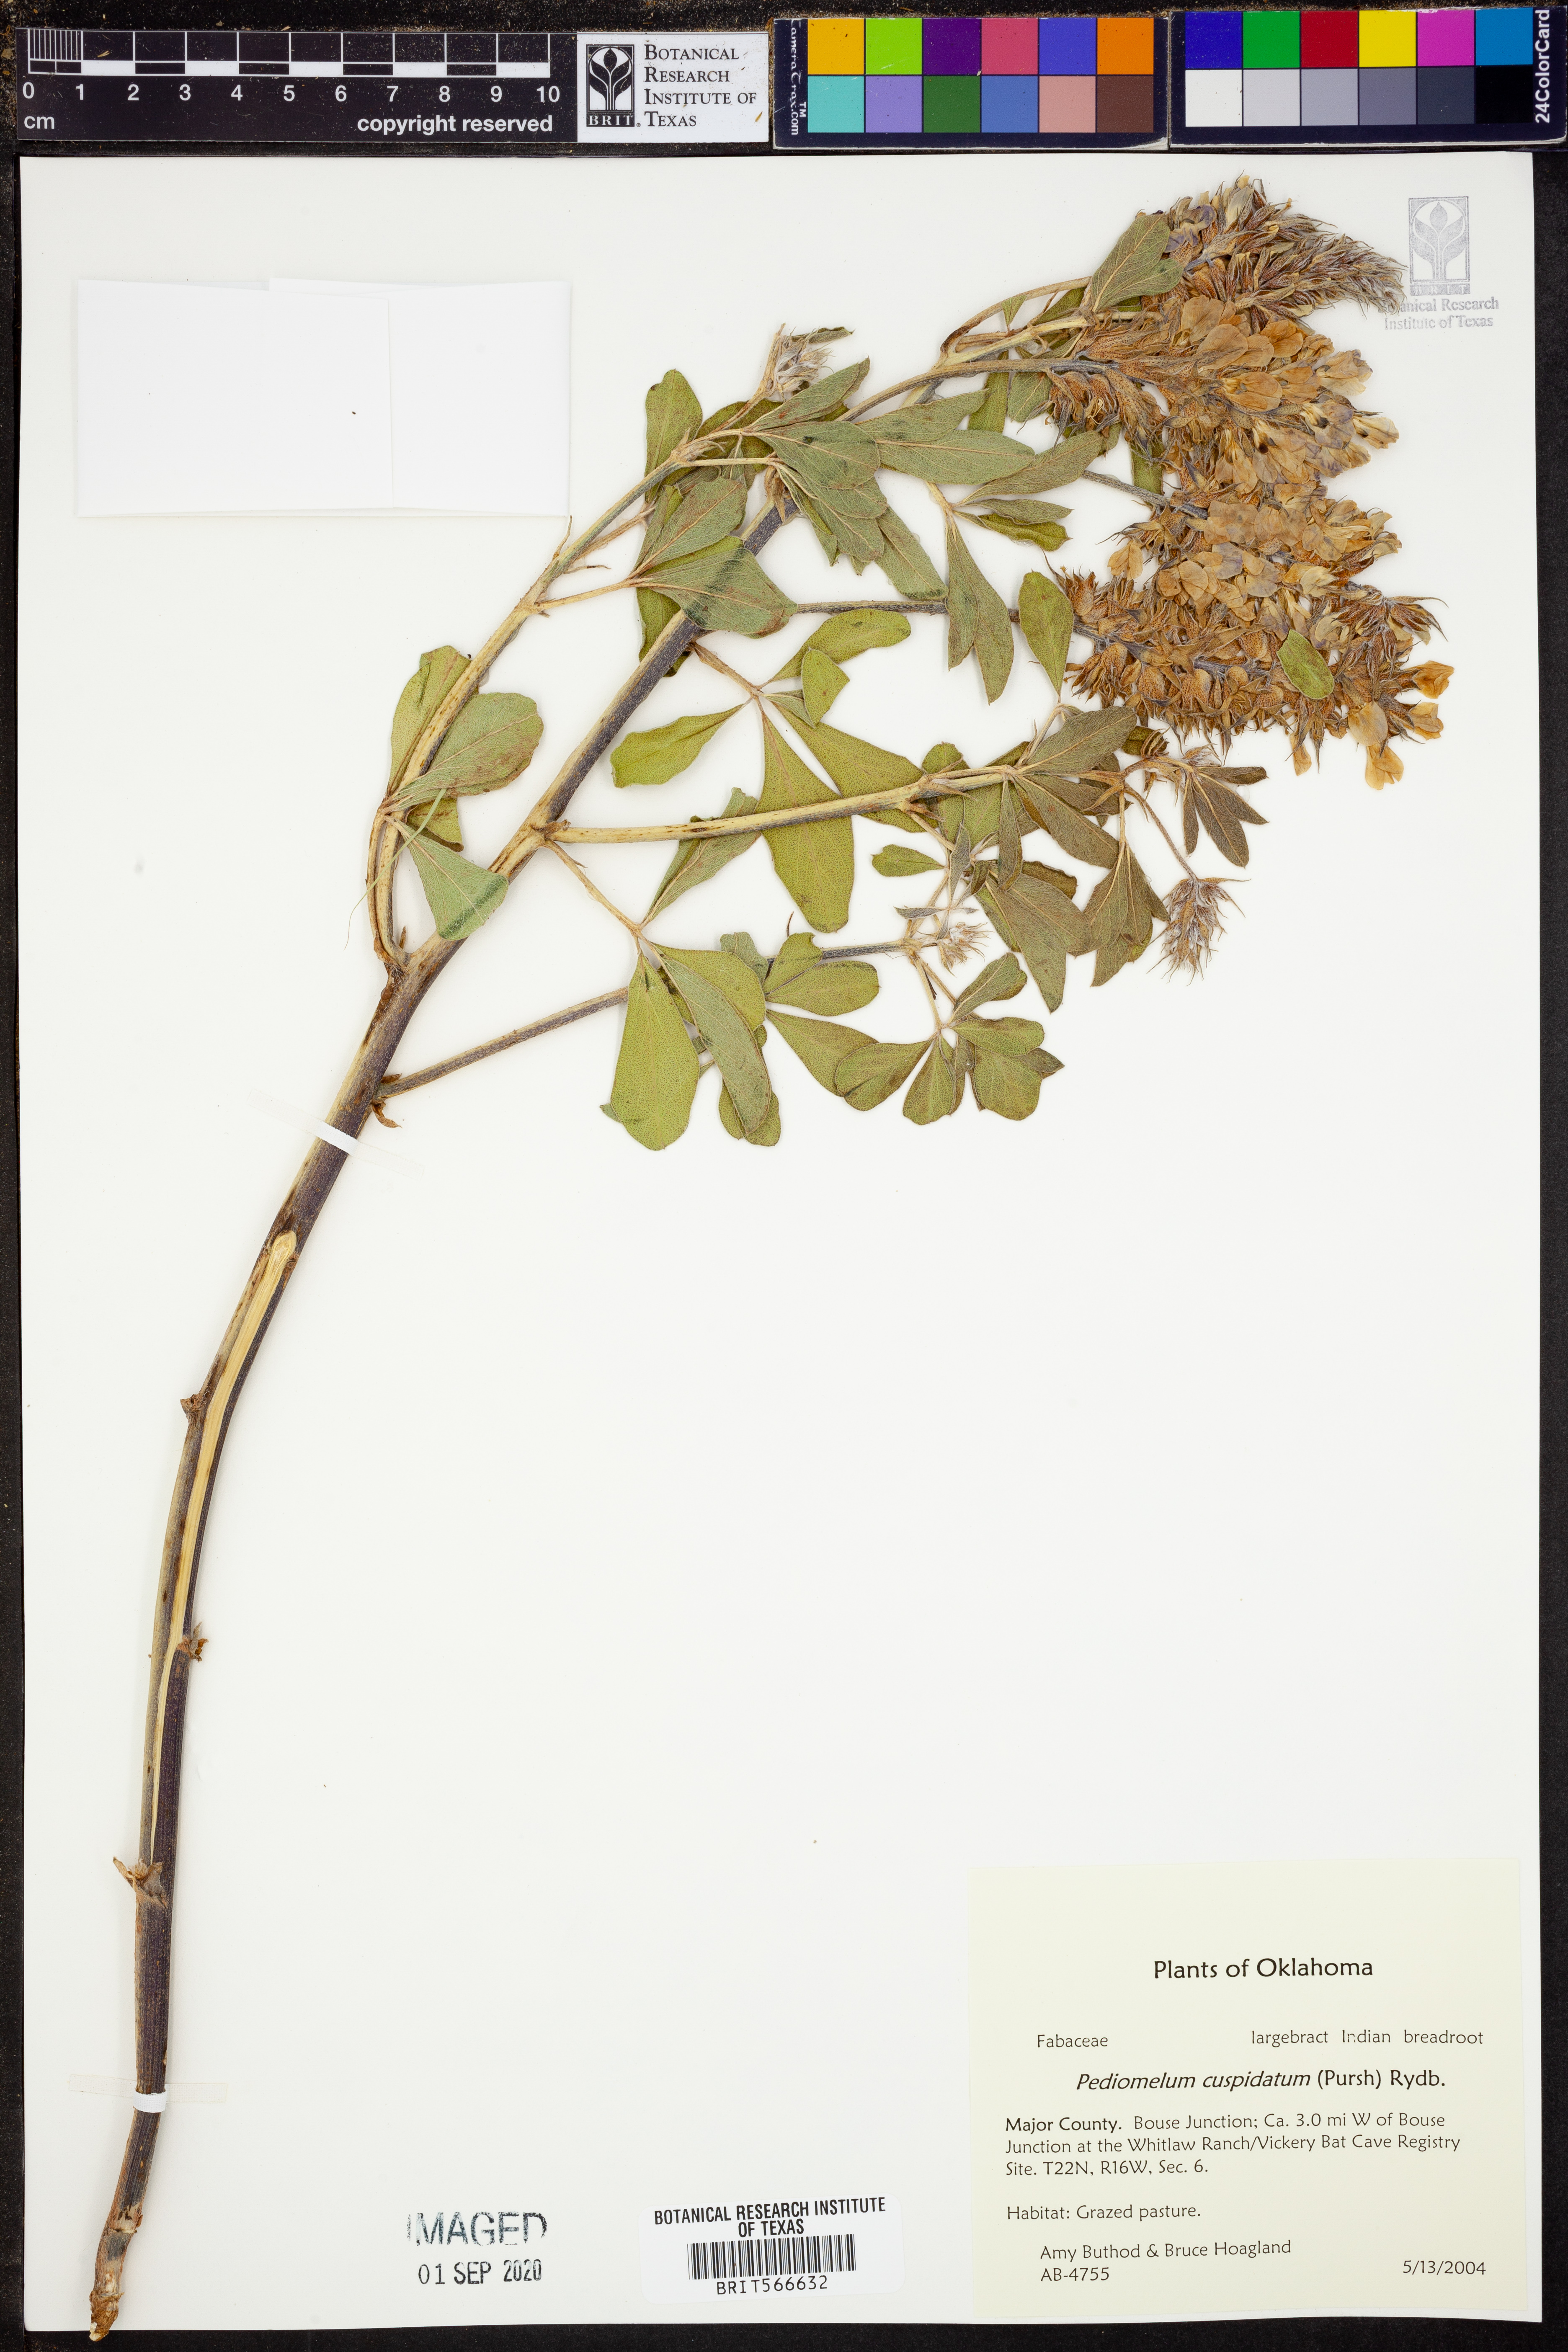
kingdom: Plantae
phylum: Tracheophyta
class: Magnoliopsida
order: Fabales
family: Fabaceae
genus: Pediomelum
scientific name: Pediomelum cuspidatum
